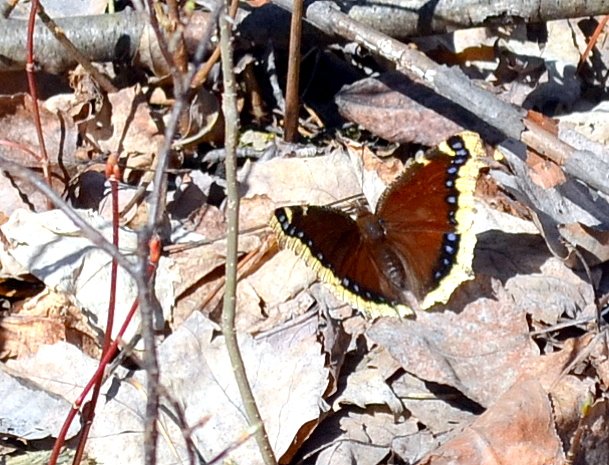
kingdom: Animalia
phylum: Arthropoda
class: Insecta
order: Lepidoptera
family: Nymphalidae
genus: Nymphalis
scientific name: Nymphalis antiopa
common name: Mourning Cloak
